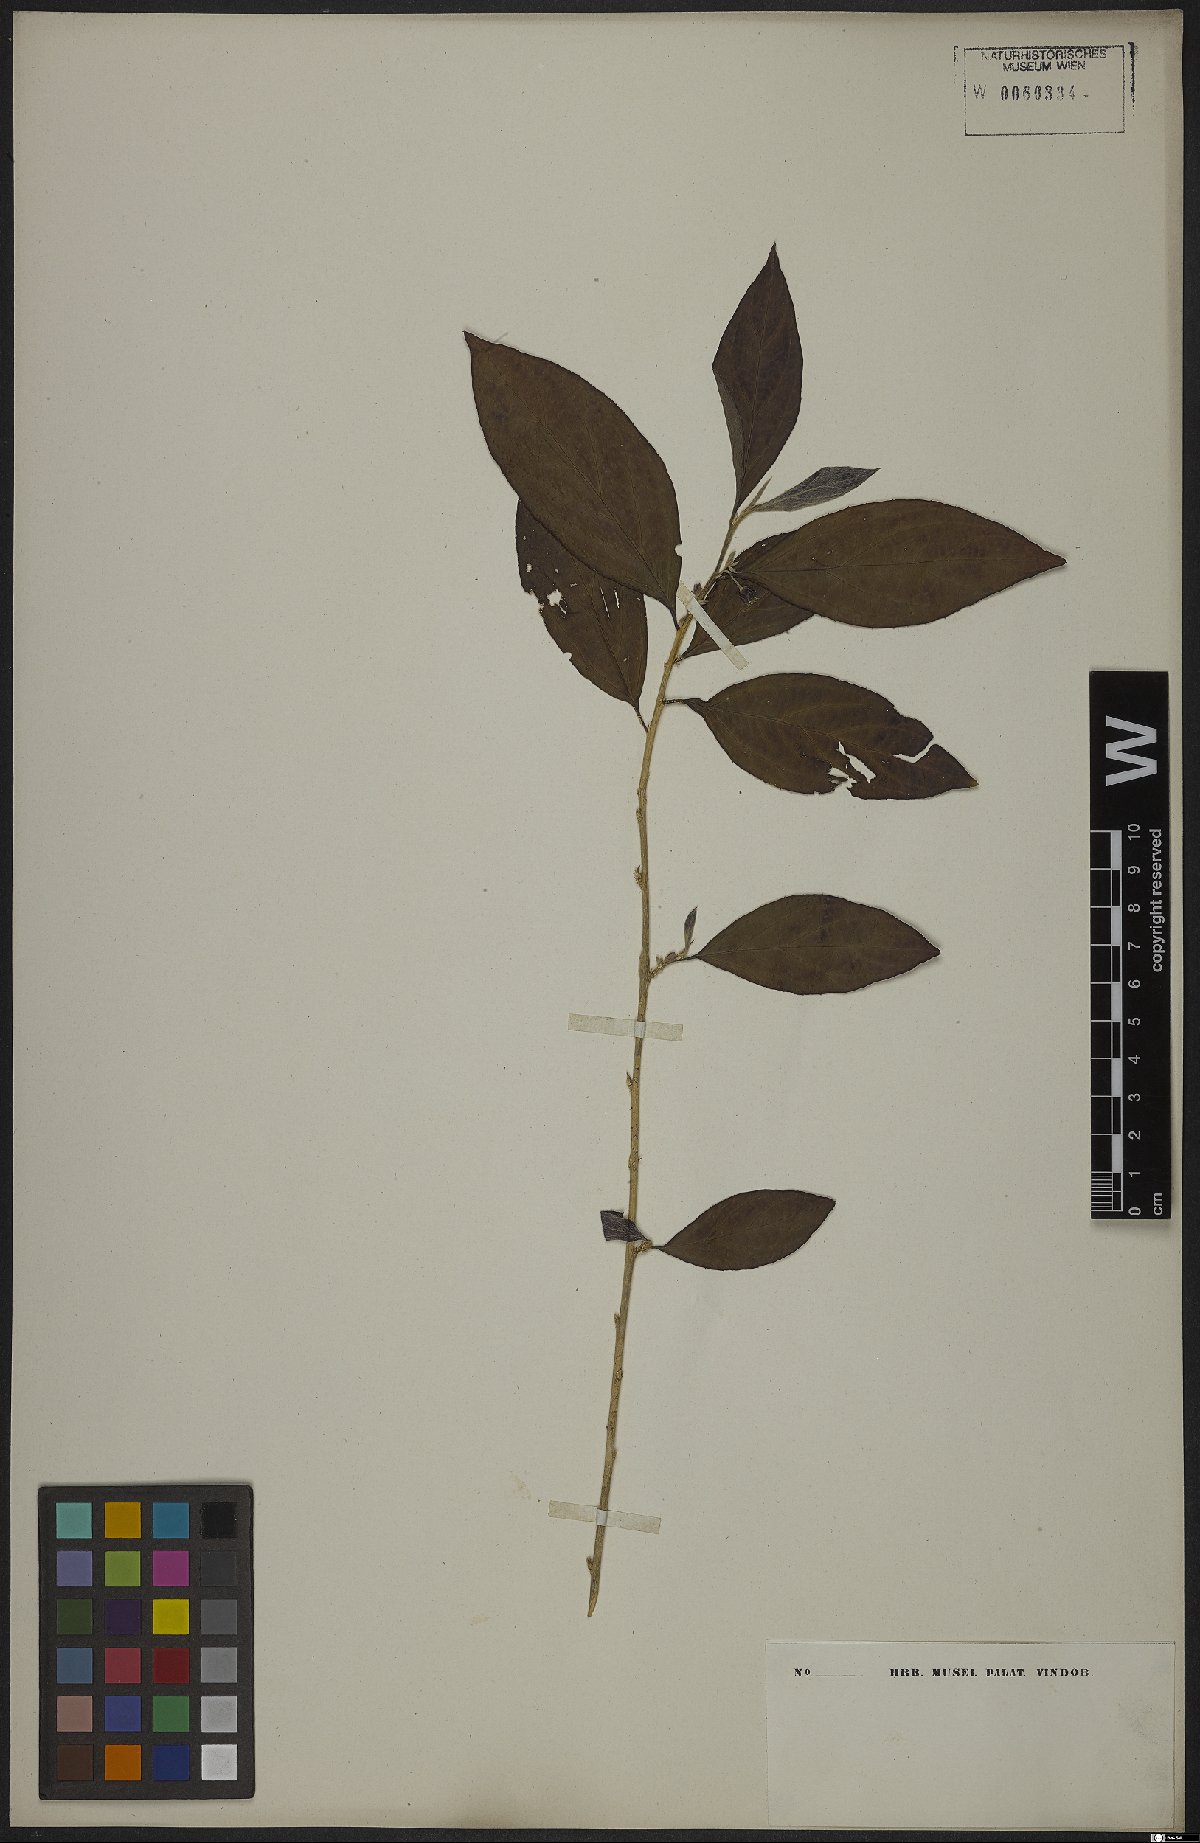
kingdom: Plantae
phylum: Tracheophyta
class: Magnoliopsida
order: Malpighiales
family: Euphorbiaceae
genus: Ditaxis
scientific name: Ditaxis simoniana
